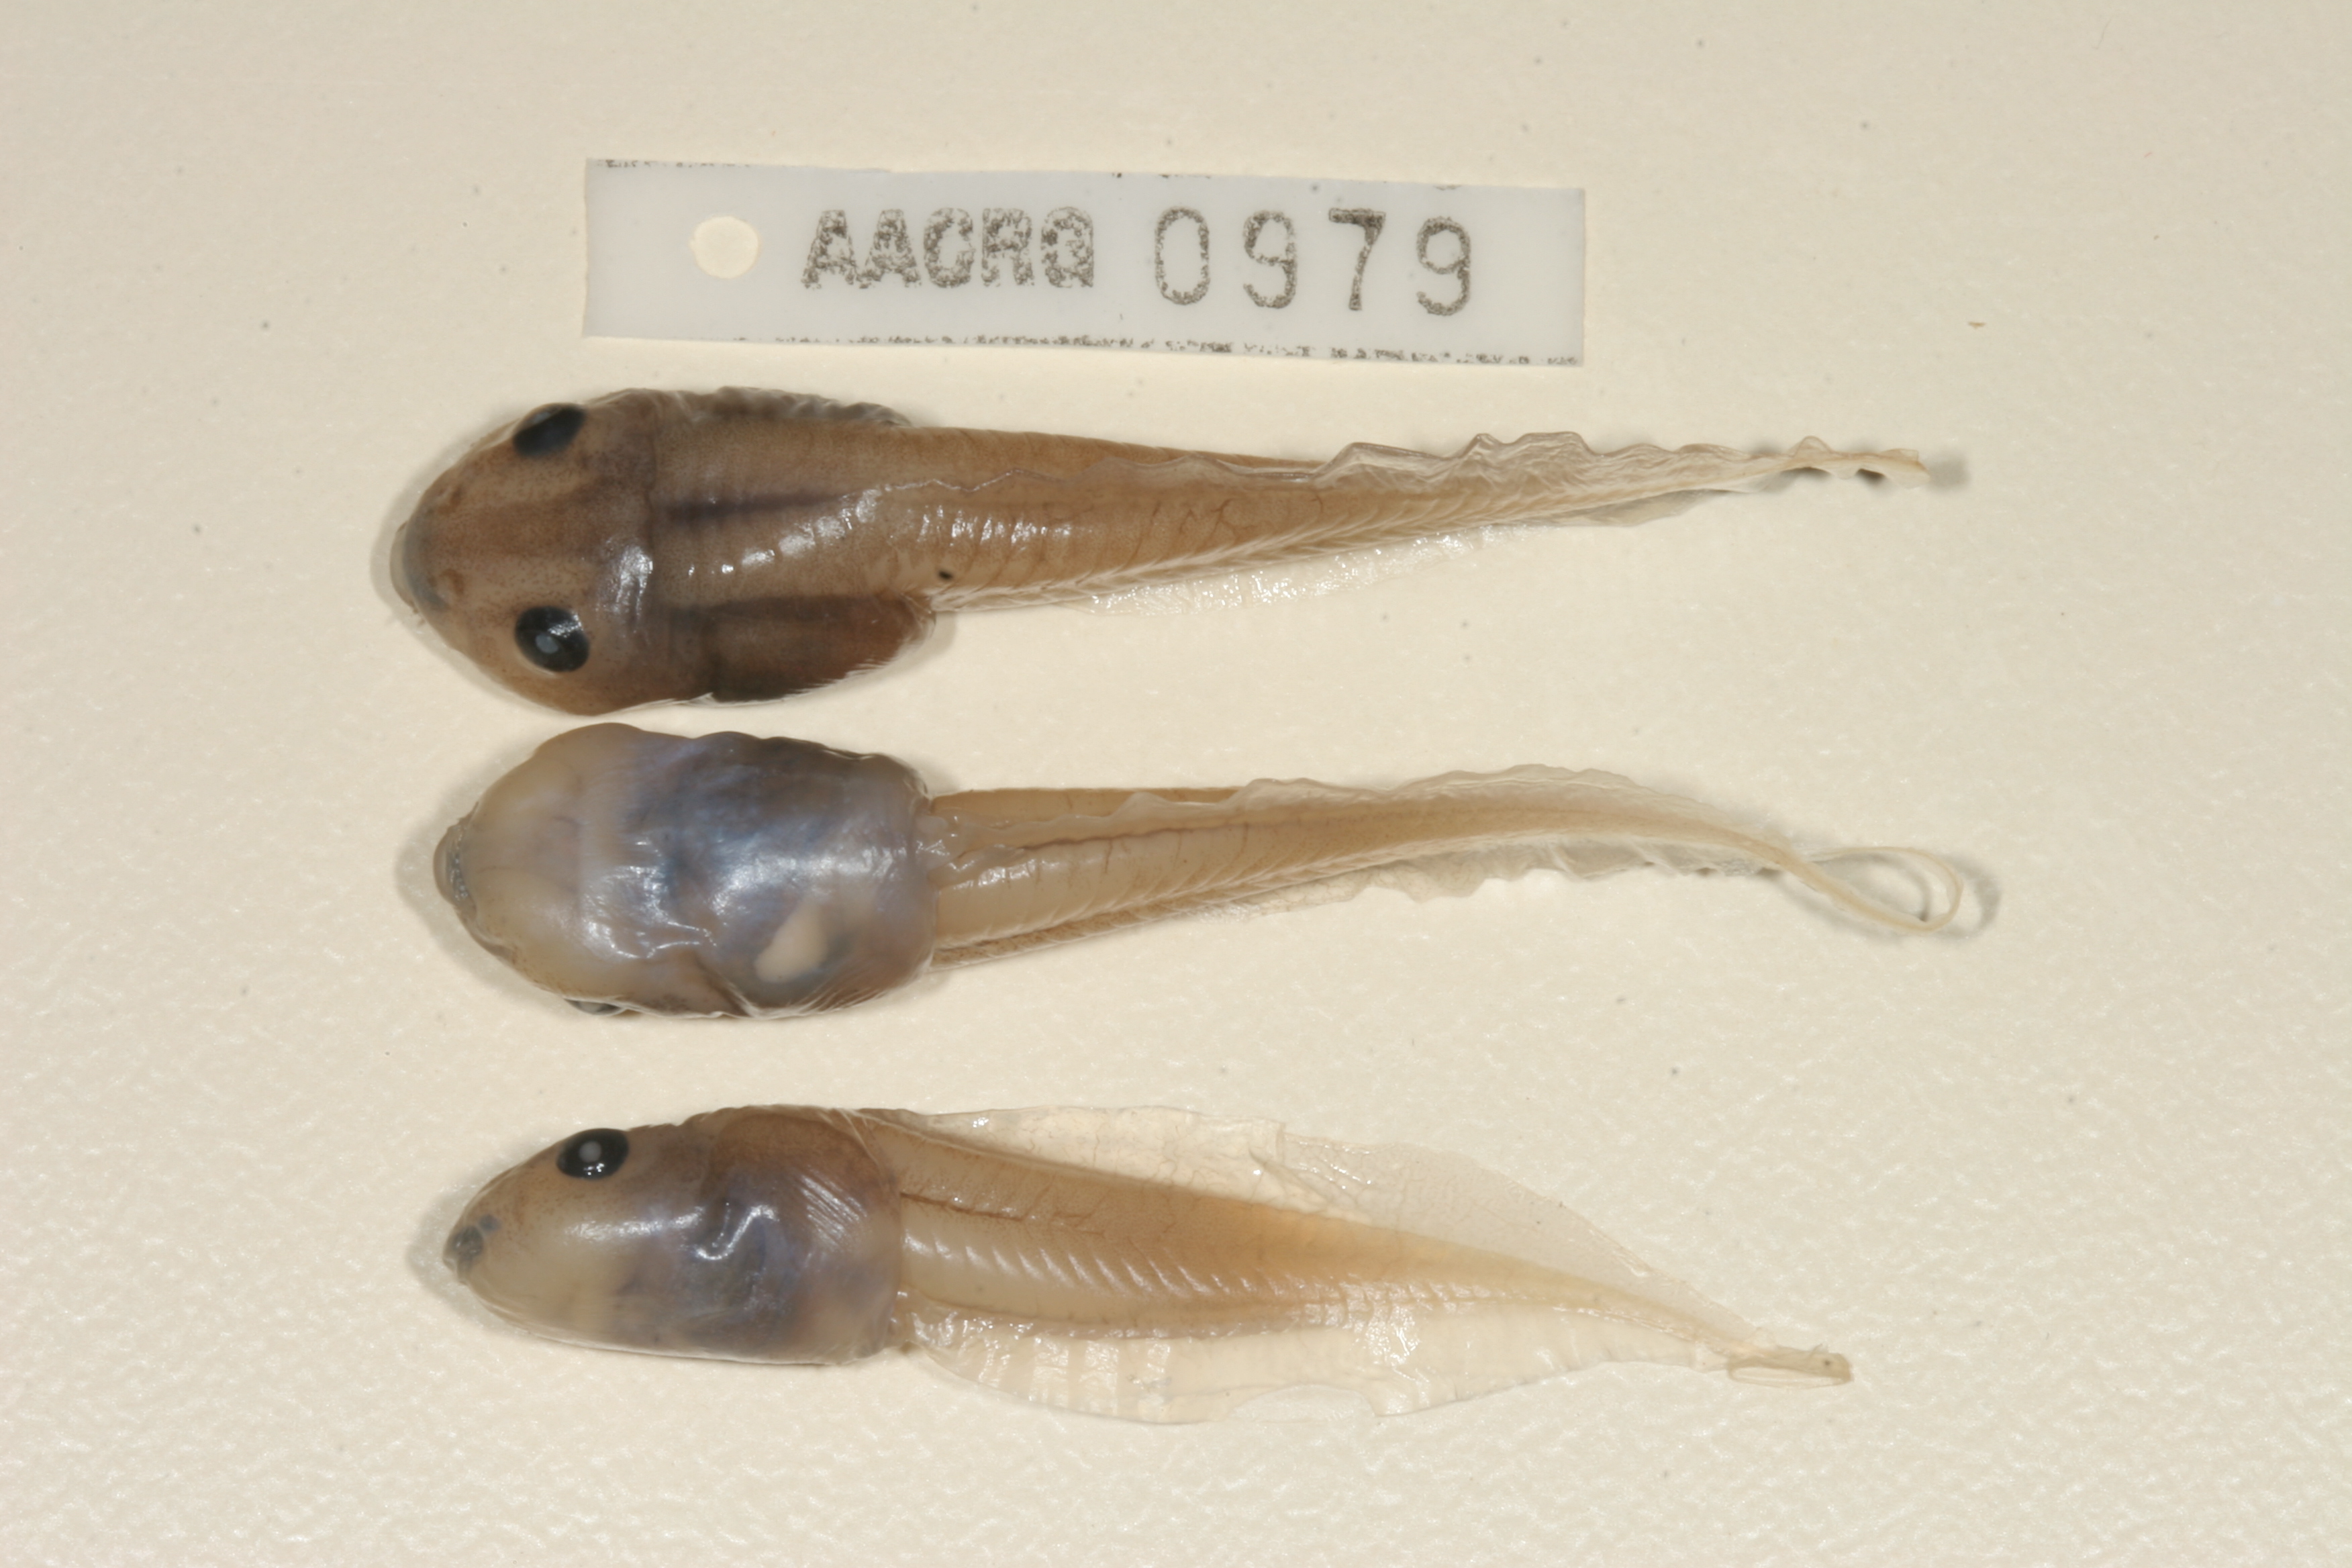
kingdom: Animalia
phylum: Chordata
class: Amphibia
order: Anura
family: Ptychadenidae
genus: Hildebrandtia
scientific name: Hildebrandtia ornata
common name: Ornate frog
